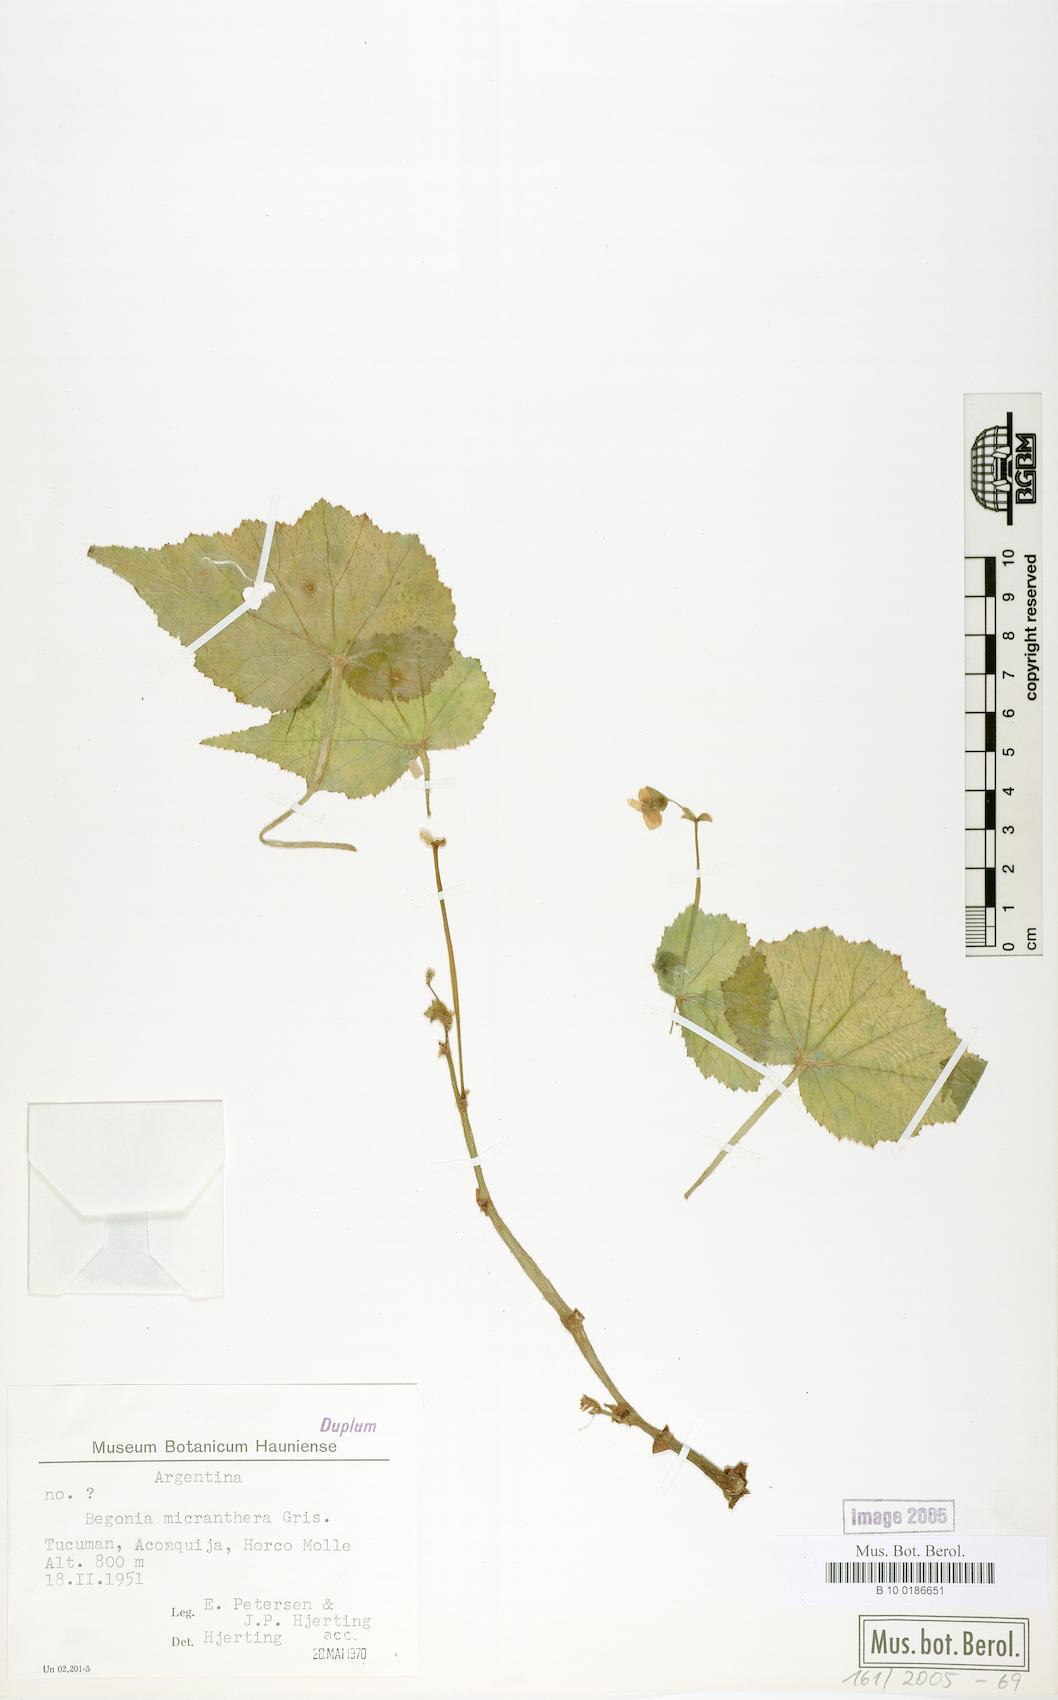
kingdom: Plantae
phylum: Tracheophyta
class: Magnoliopsida
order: Cucurbitales
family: Begoniaceae
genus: Begonia
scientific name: Begonia micranthera
